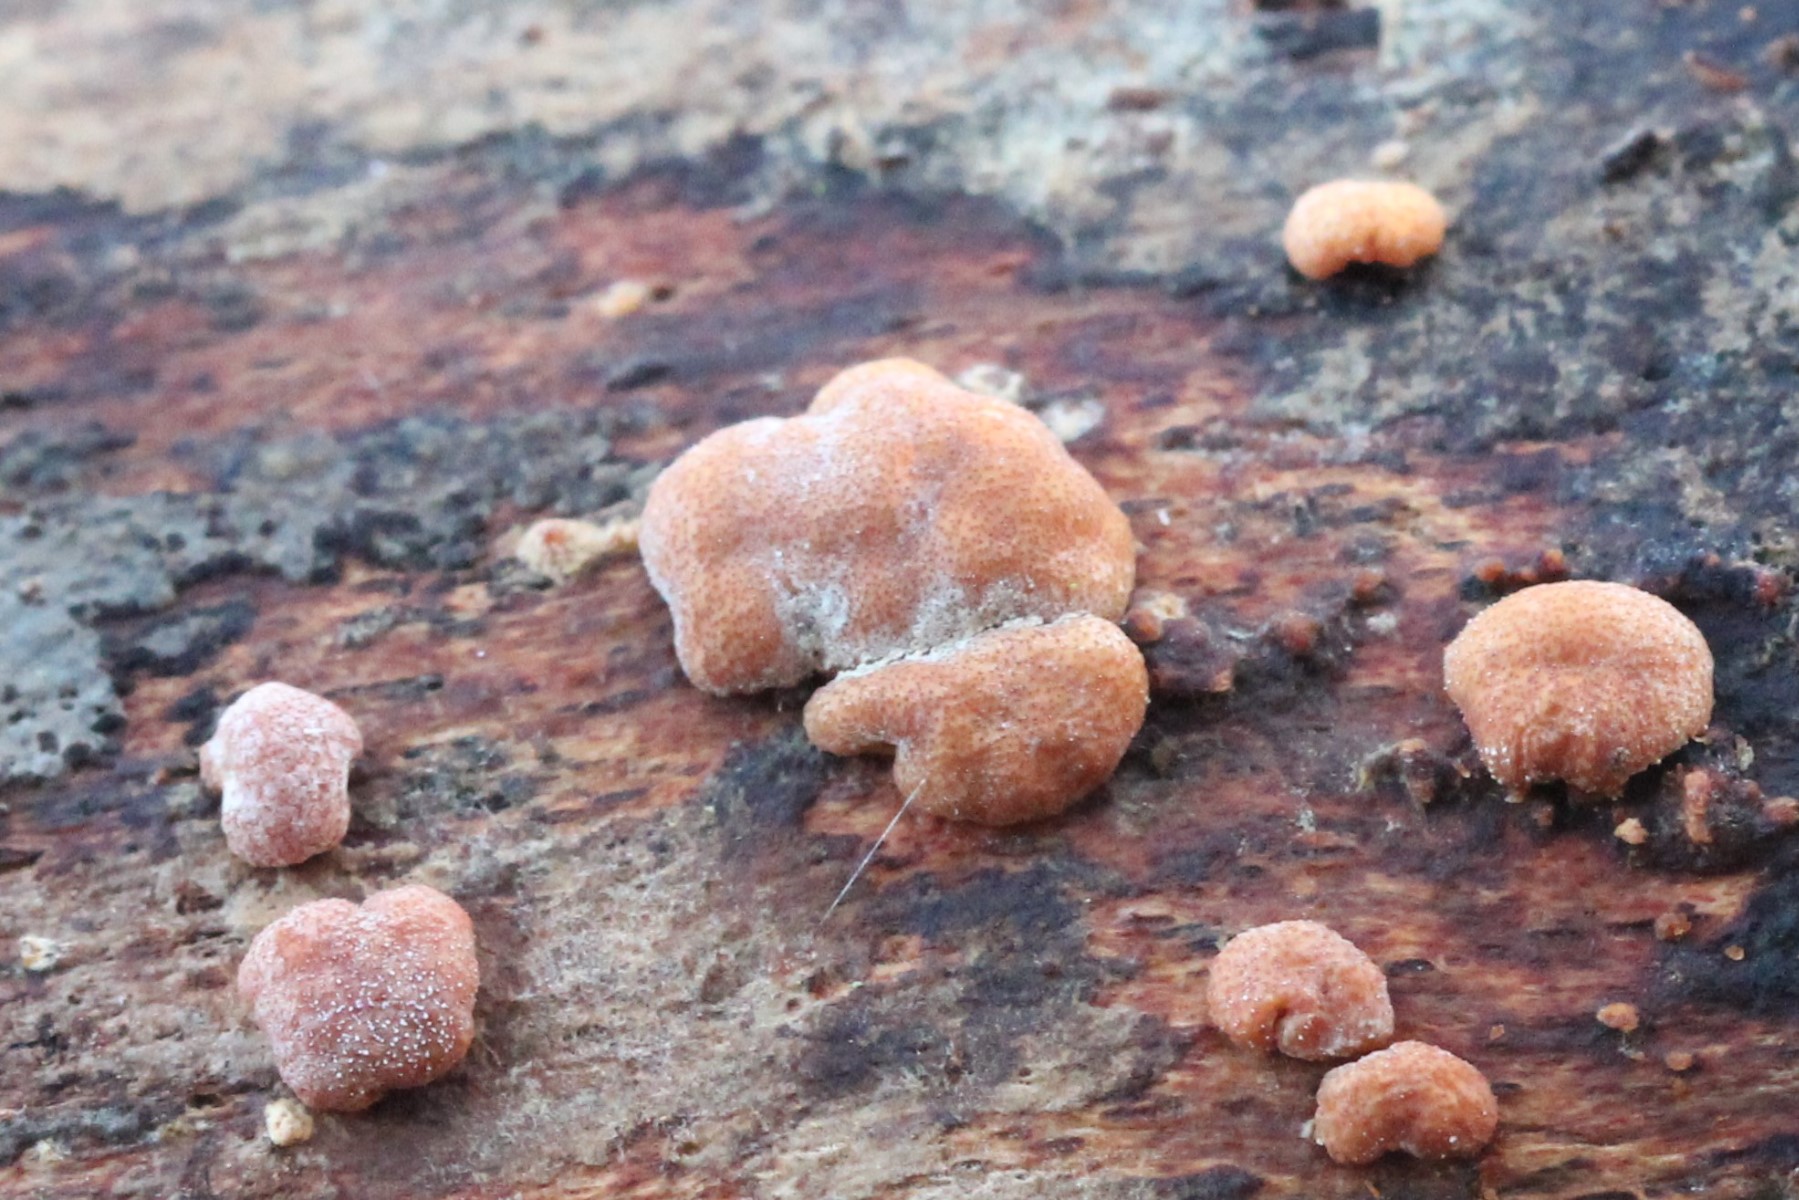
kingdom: Fungi
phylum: Ascomycota
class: Sordariomycetes
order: Hypocreales
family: Hypocreaceae
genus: Trichoderma
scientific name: Trichoderma europaeum
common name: rosabrun kødkerne
